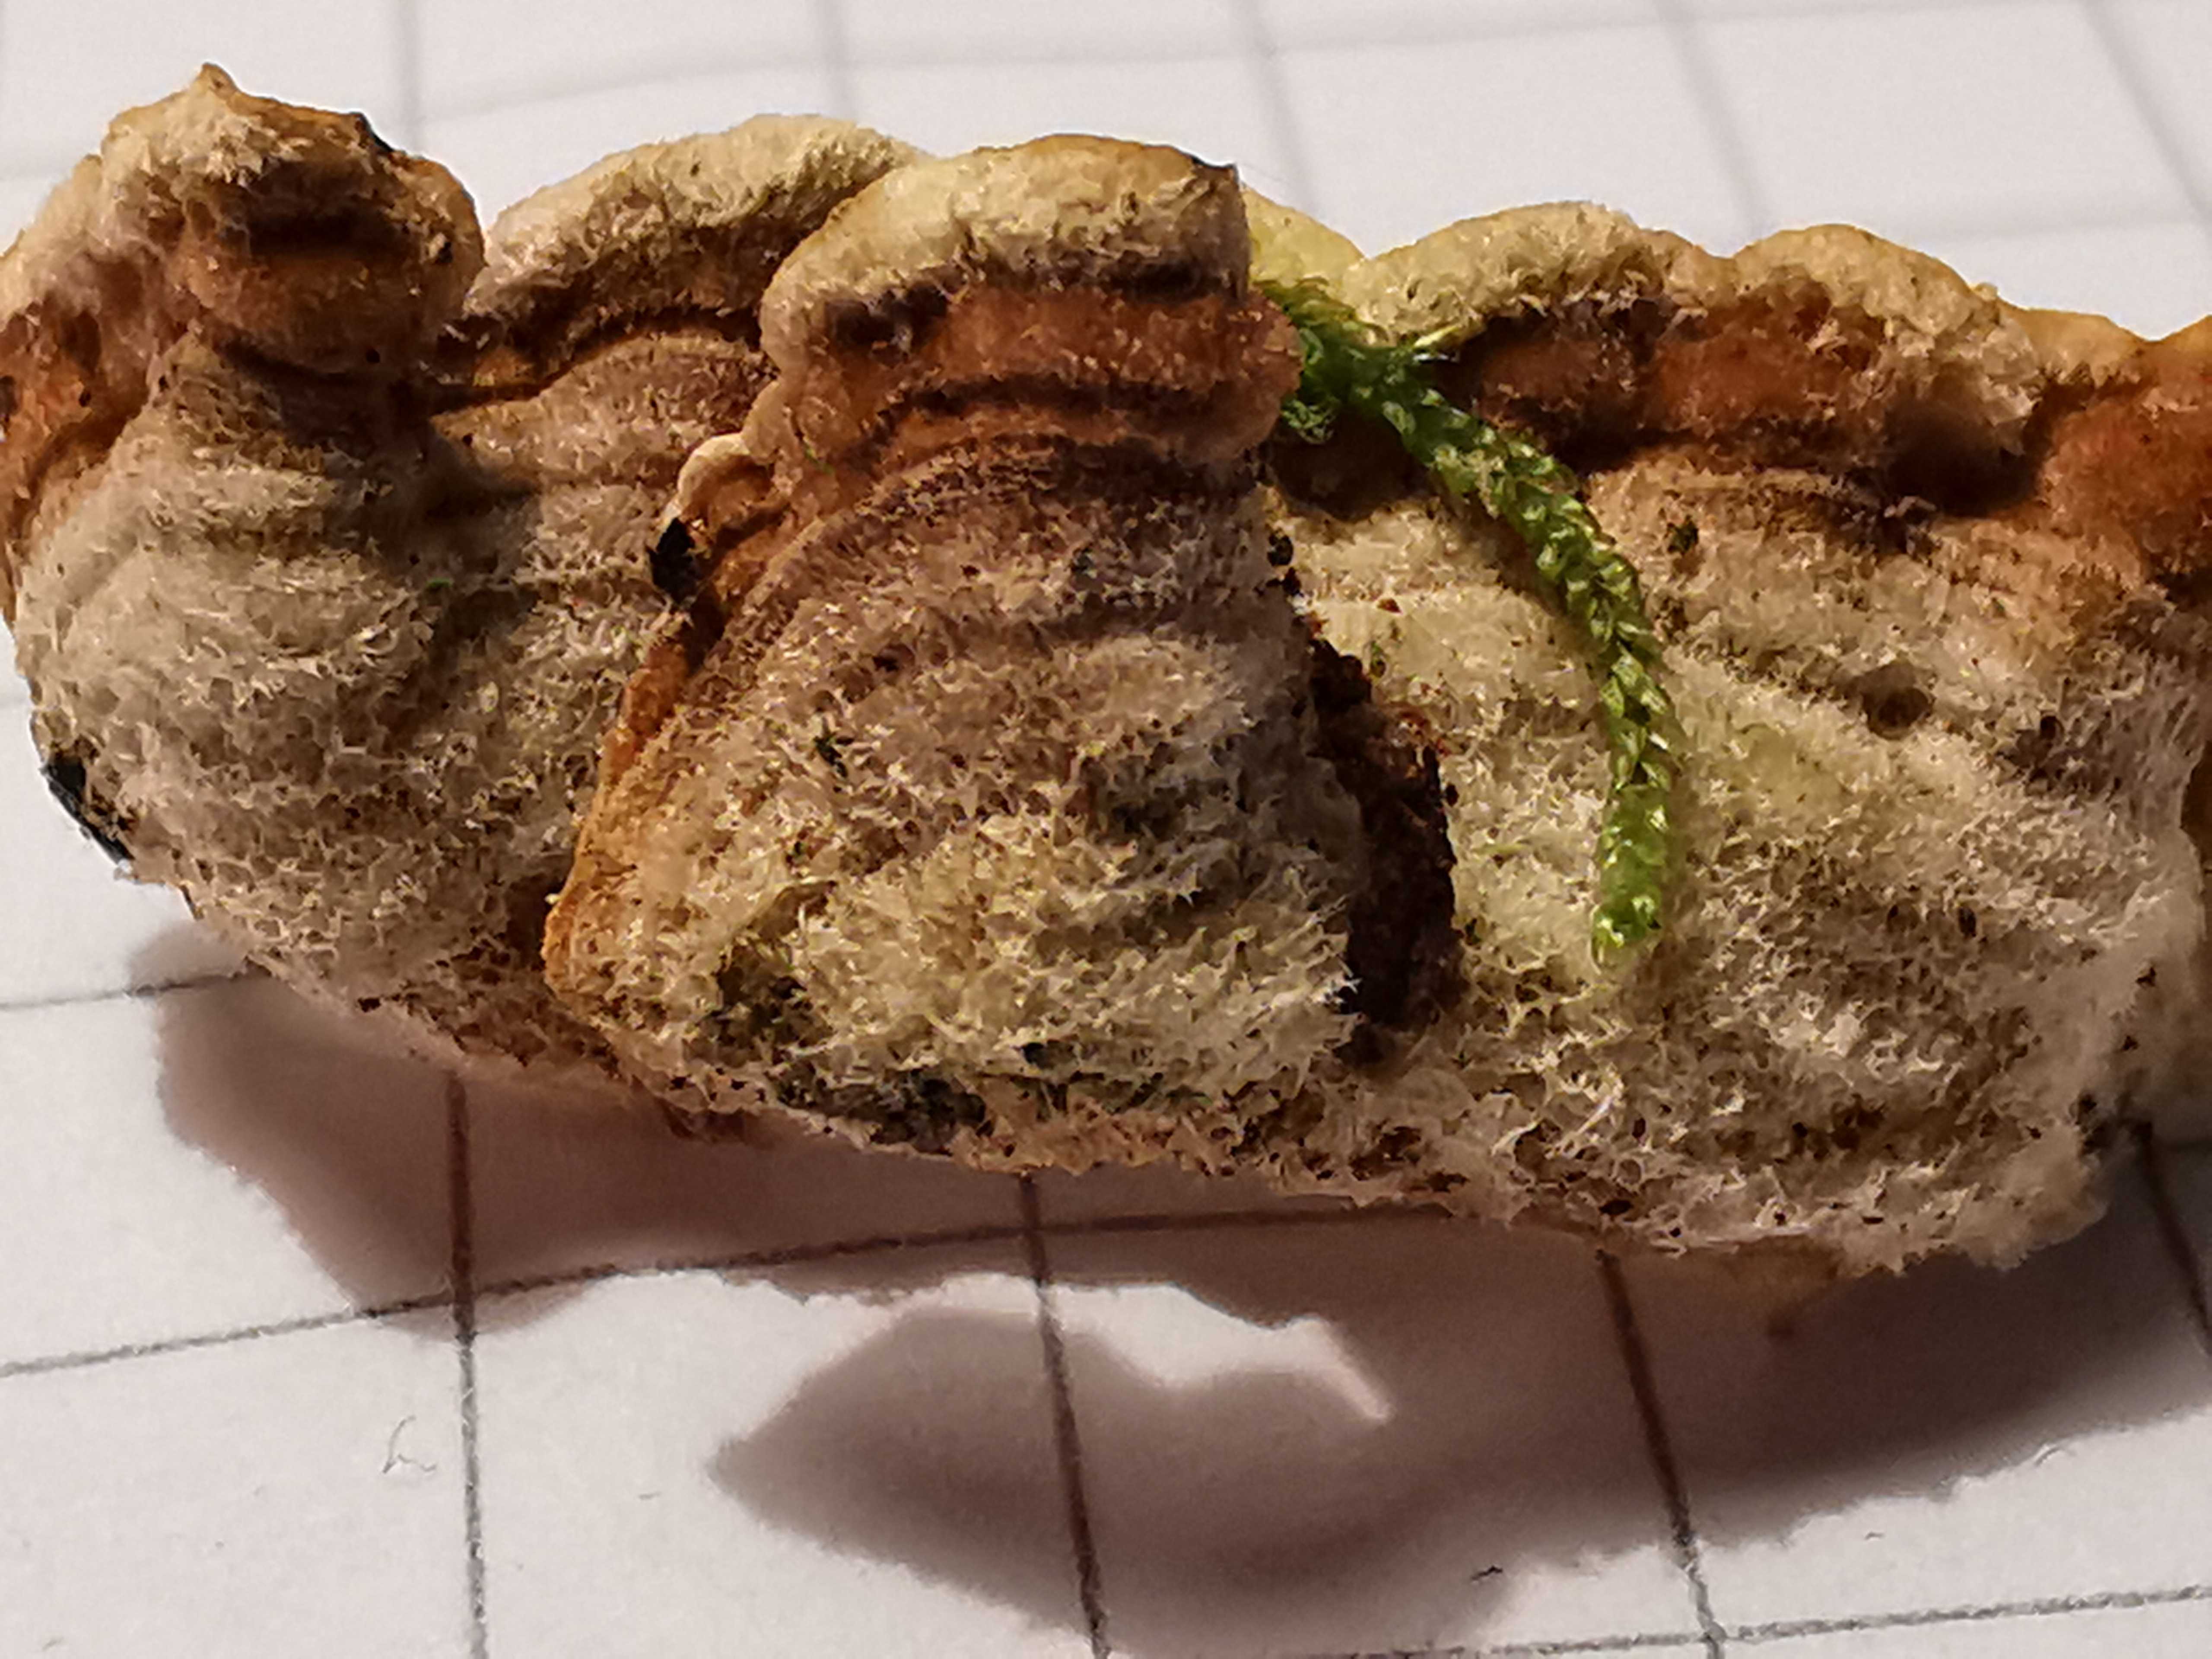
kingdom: Fungi
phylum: Basidiomycota
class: Agaricomycetes
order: Russulales
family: Stereaceae
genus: Stereum
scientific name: Stereum hirsutum
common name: håret lædersvamp
